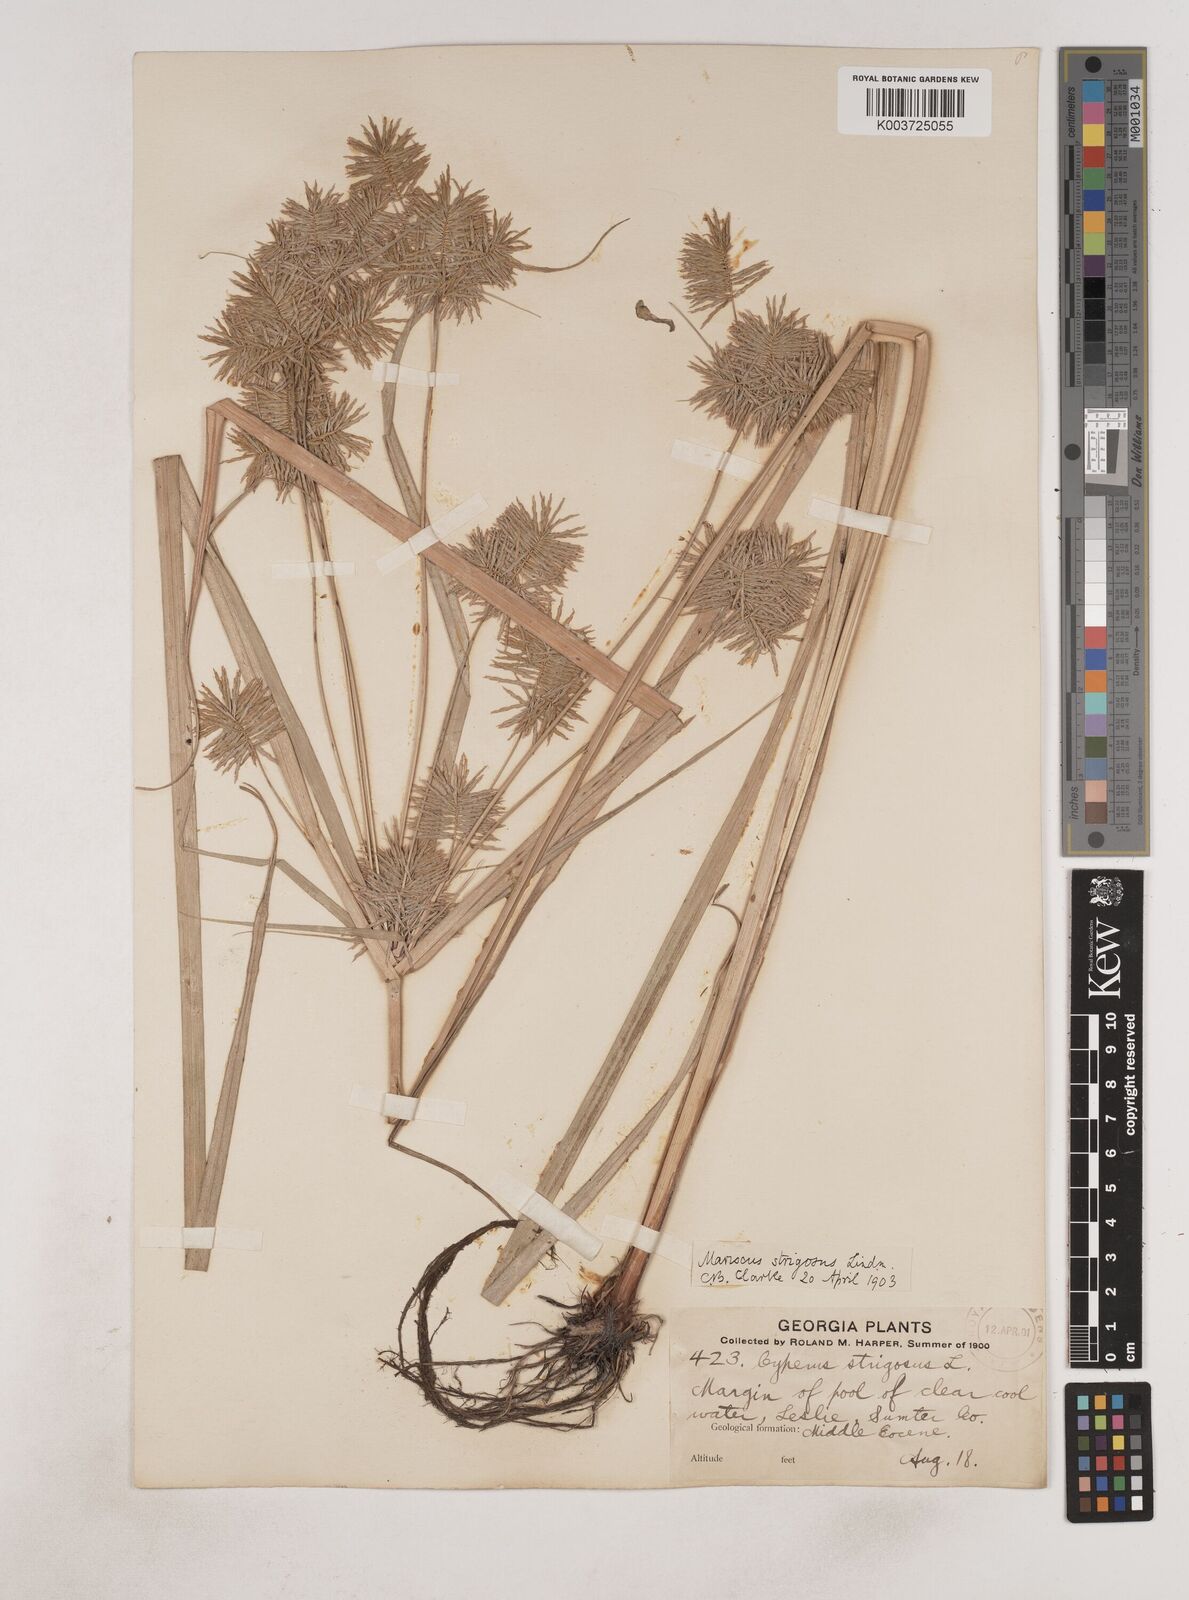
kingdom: Plantae
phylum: Tracheophyta
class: Liliopsida
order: Poales
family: Cyperaceae
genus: Cyperus
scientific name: Cyperus strigosus
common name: False nutsedge
